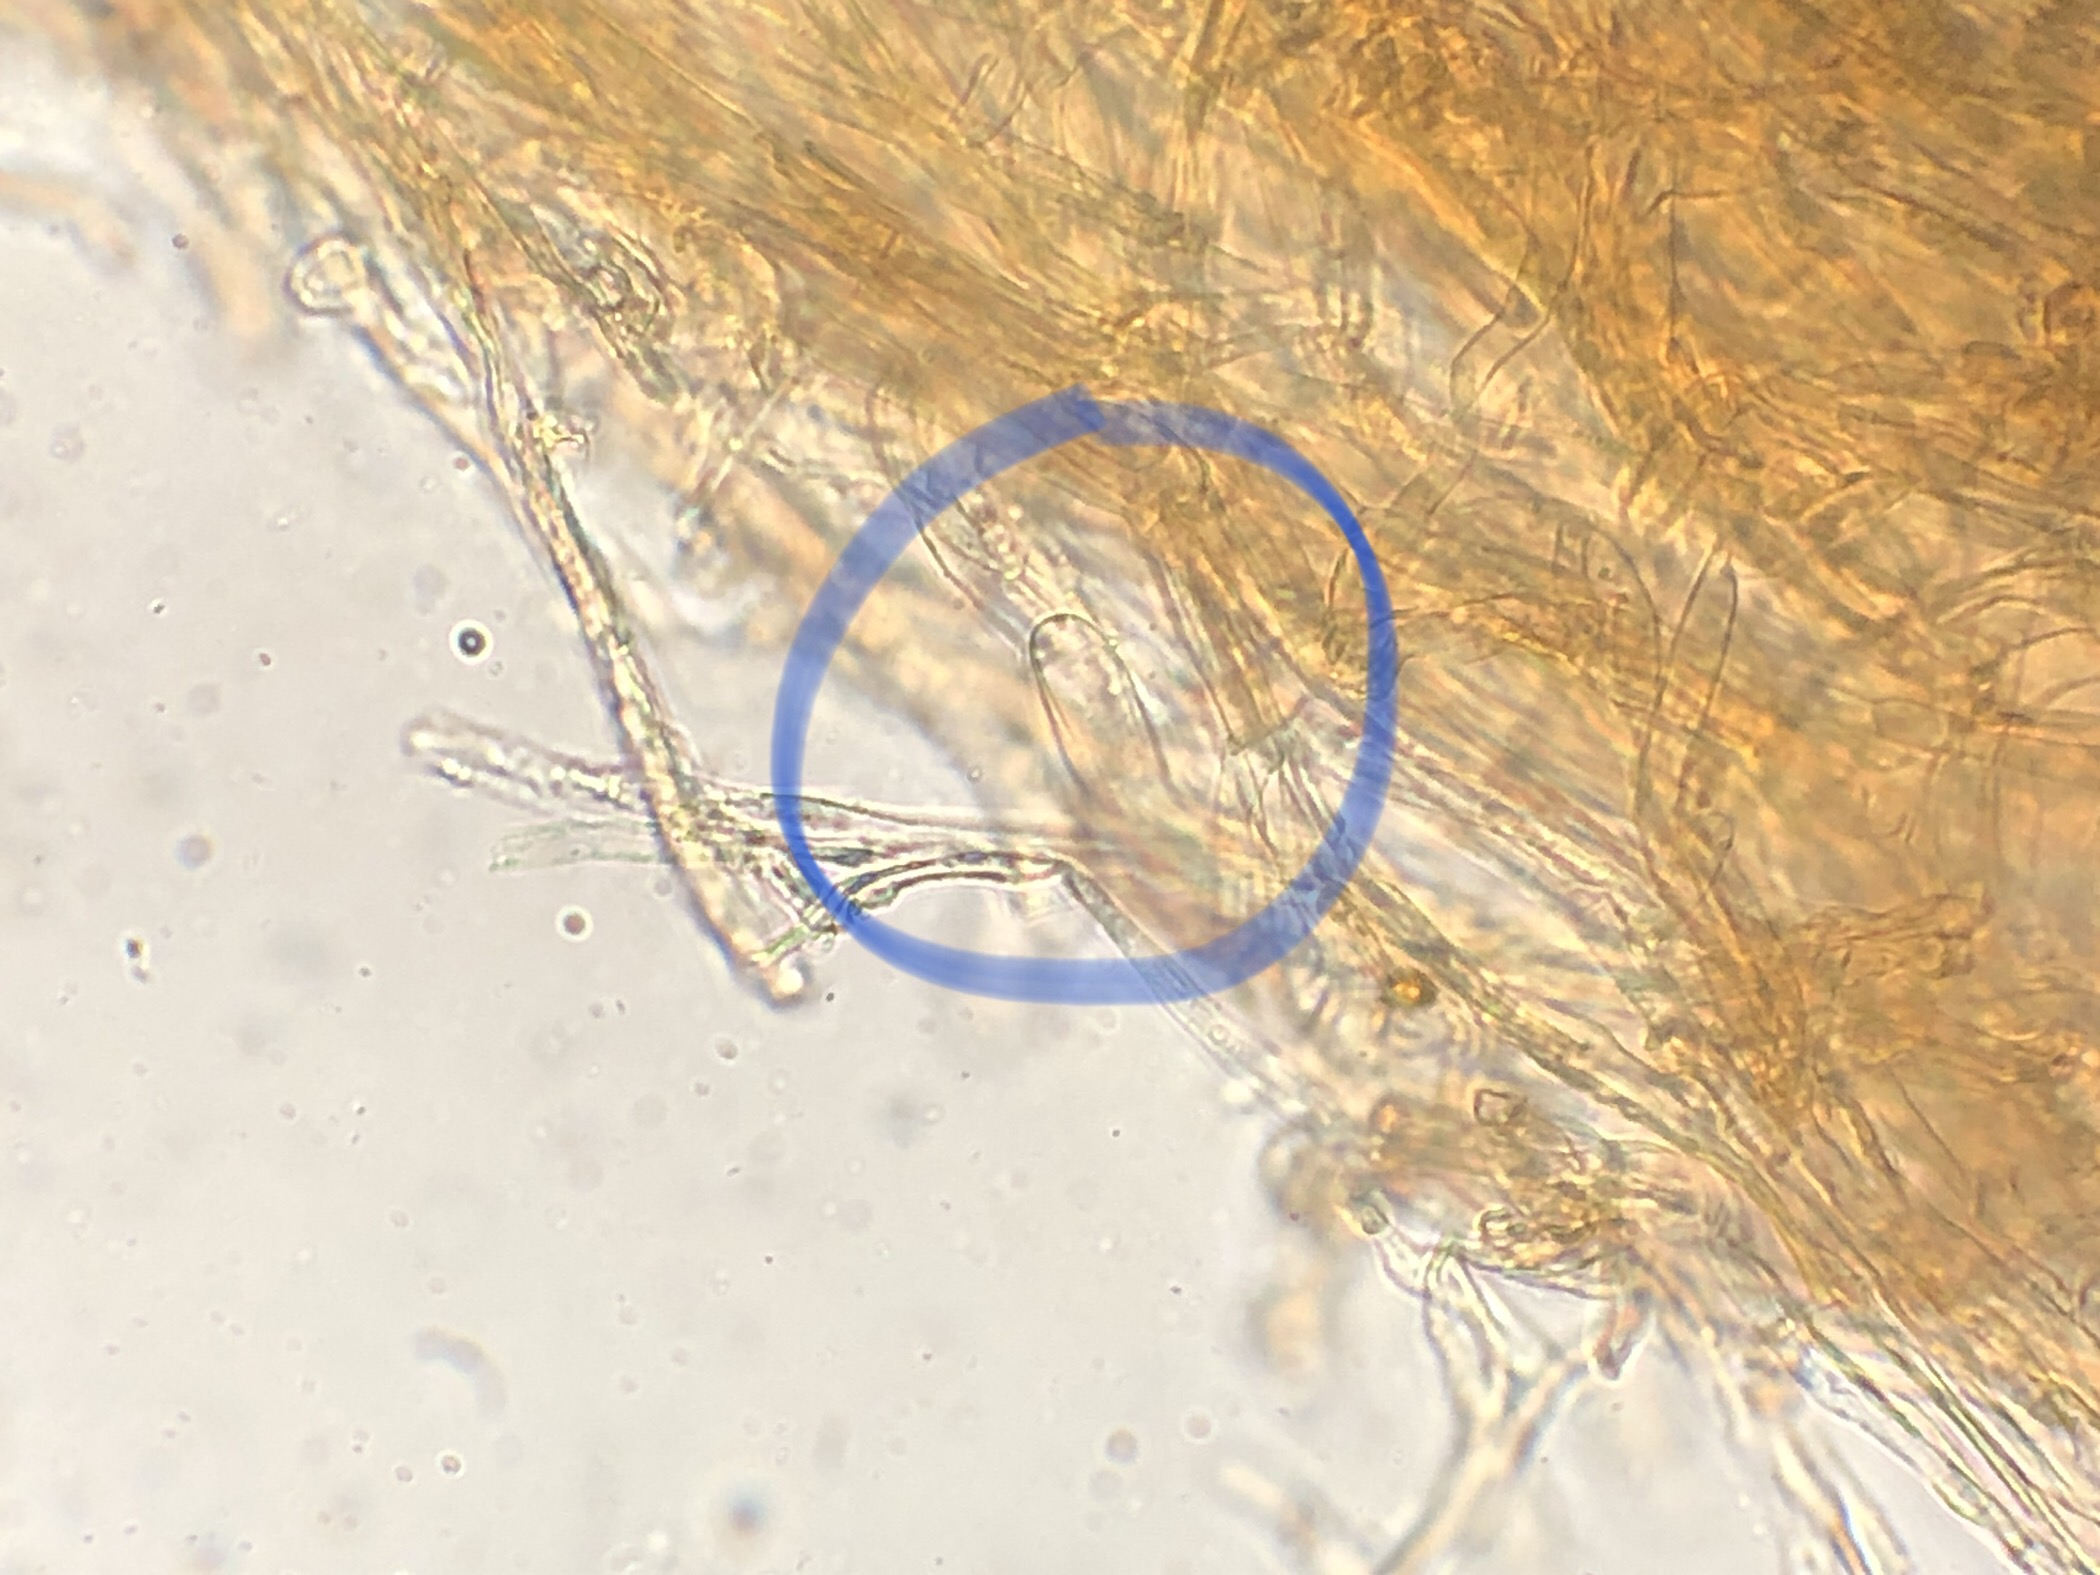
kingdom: Fungi
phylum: Basidiomycota
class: Agaricomycetes
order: Agaricales
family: Agaricaceae
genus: Lepiota
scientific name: Lepiota ochraceofulva
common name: sødtduftende parasolhat
